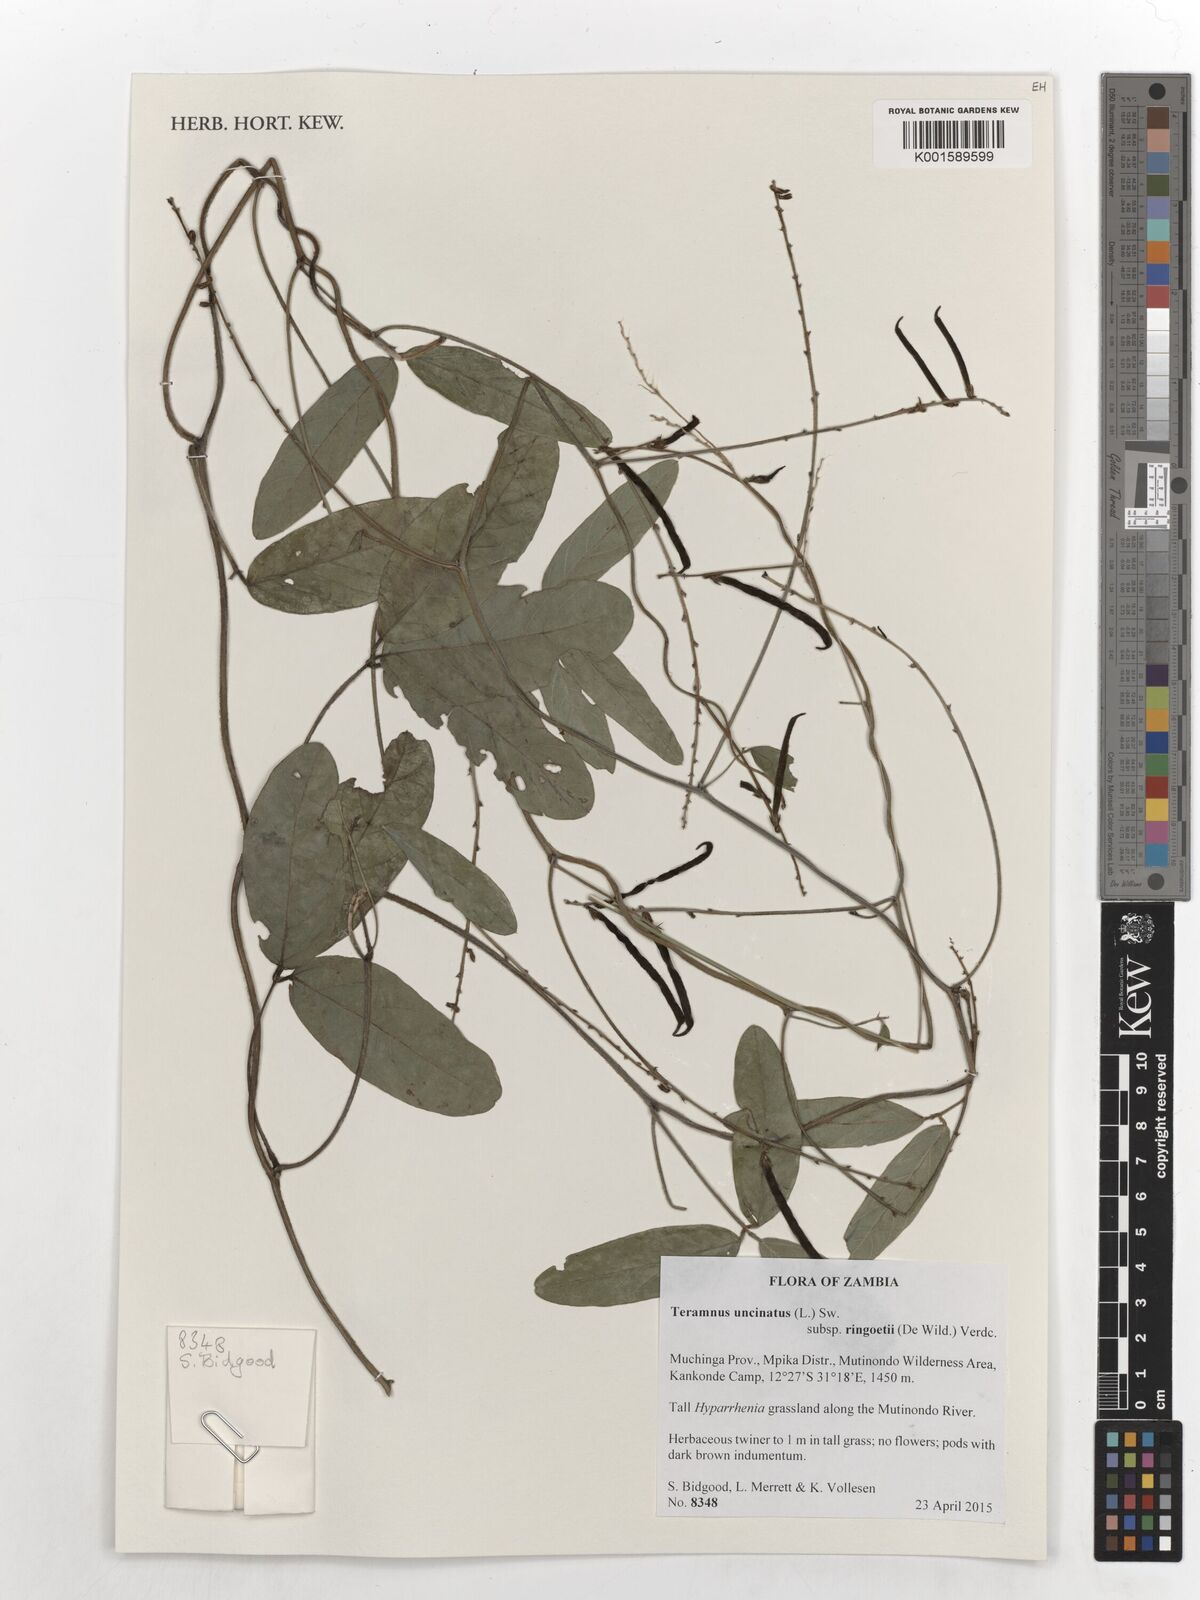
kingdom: Plantae
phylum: Tracheophyta
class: Magnoliopsida
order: Fabales
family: Fabaceae
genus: Teramnus
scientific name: Teramnus uncinatus
